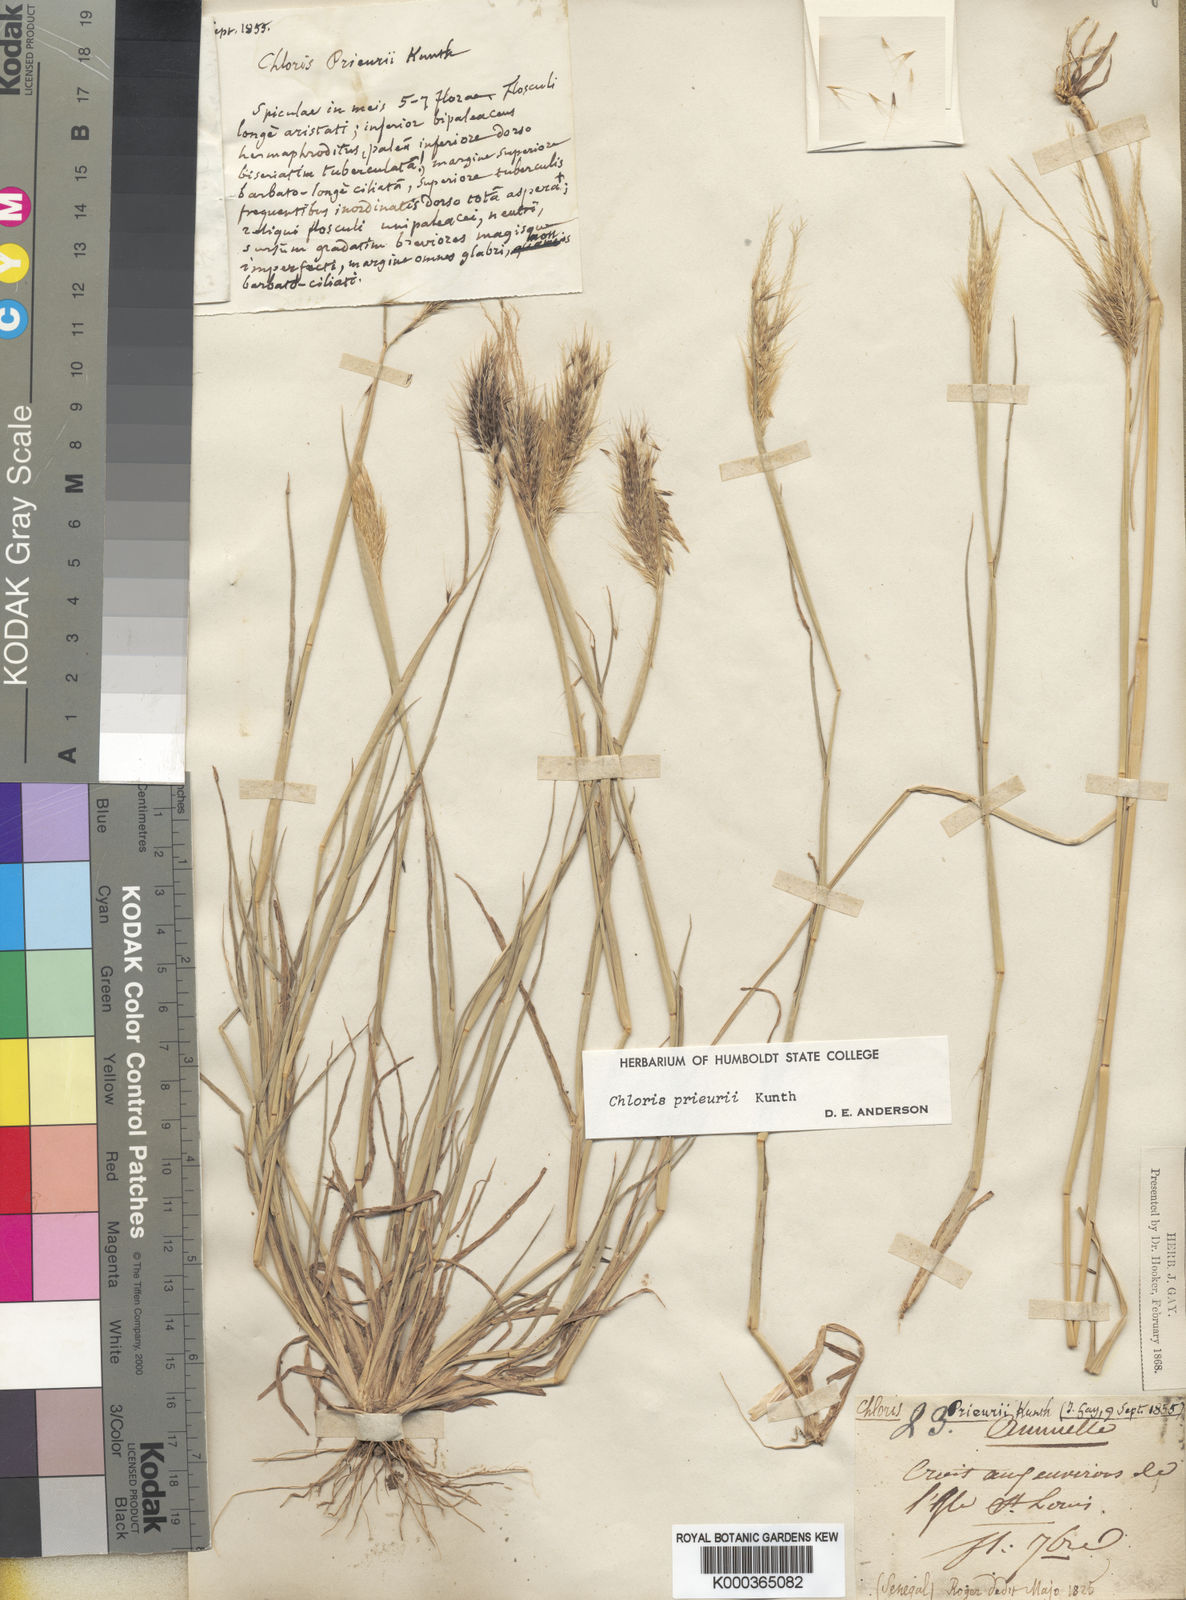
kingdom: Plantae
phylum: Tracheophyta
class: Liliopsida
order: Poales
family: Poaceae
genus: Enteropogon
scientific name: Enteropogon prieurii
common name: Prieur's umbrellagrass
